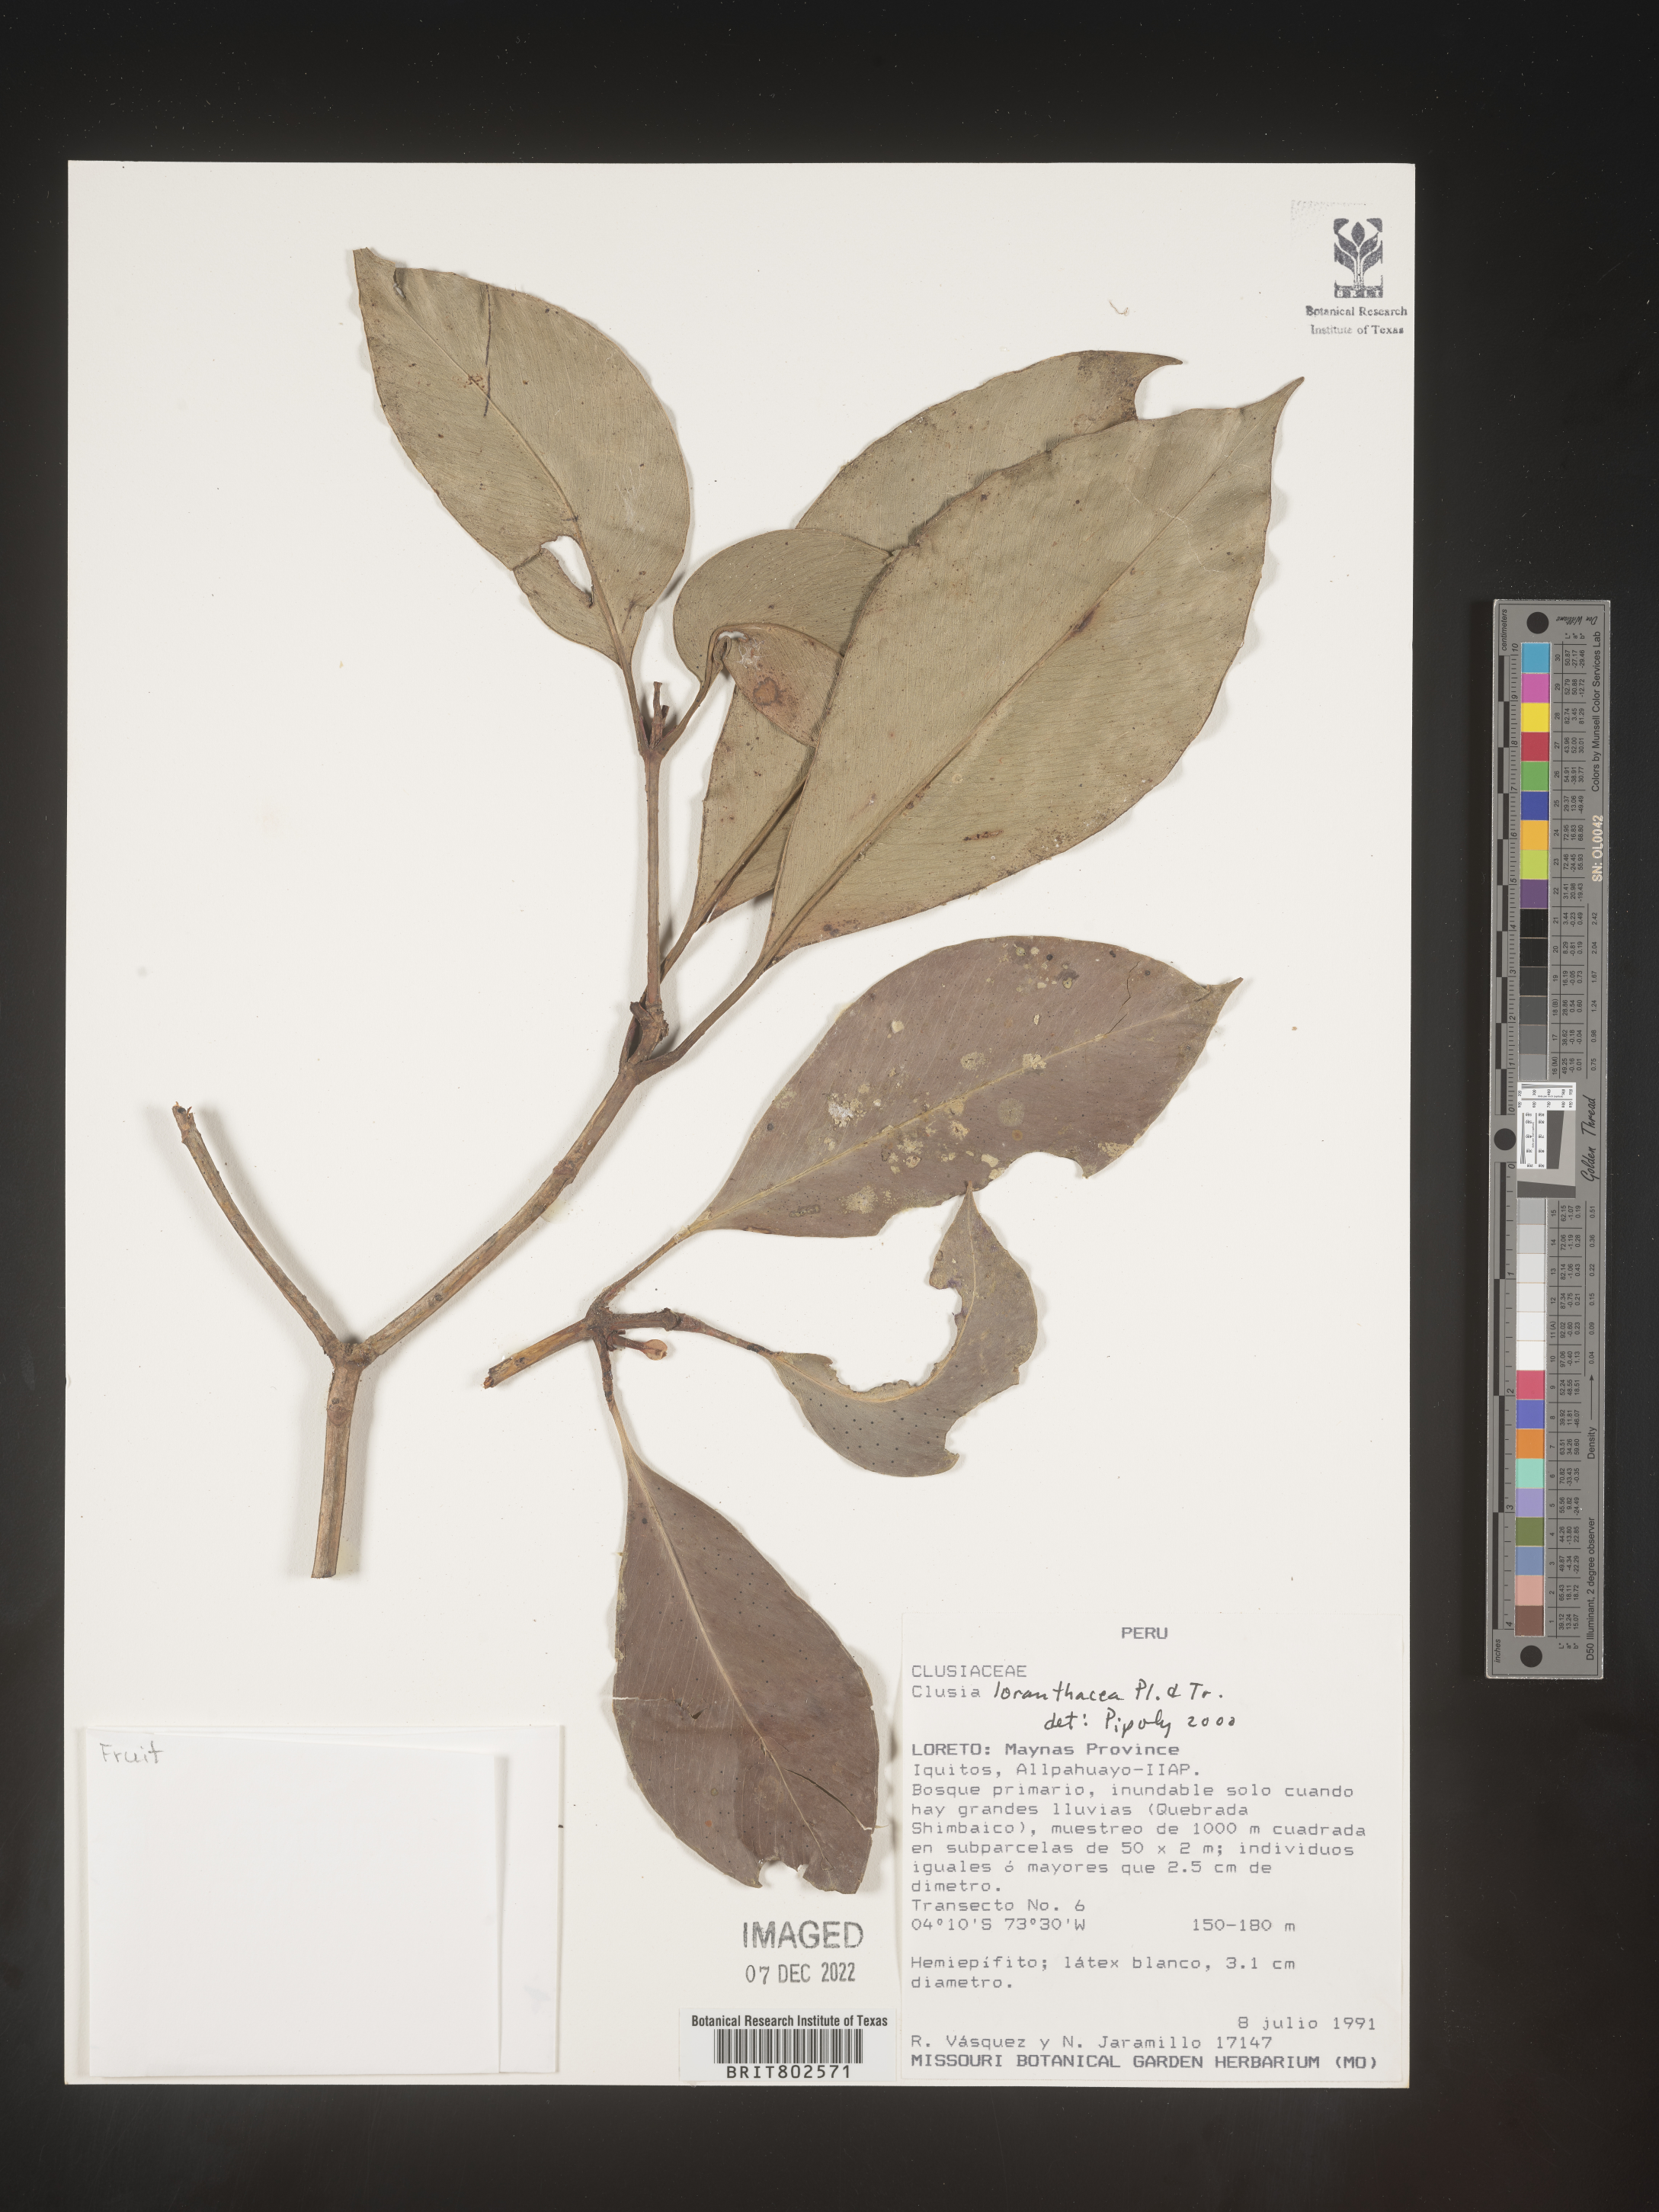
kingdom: Plantae
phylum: Tracheophyta
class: Magnoliopsida
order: Malpighiales
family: Clusiaceae
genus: Clusia
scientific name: Clusia loranthacea
